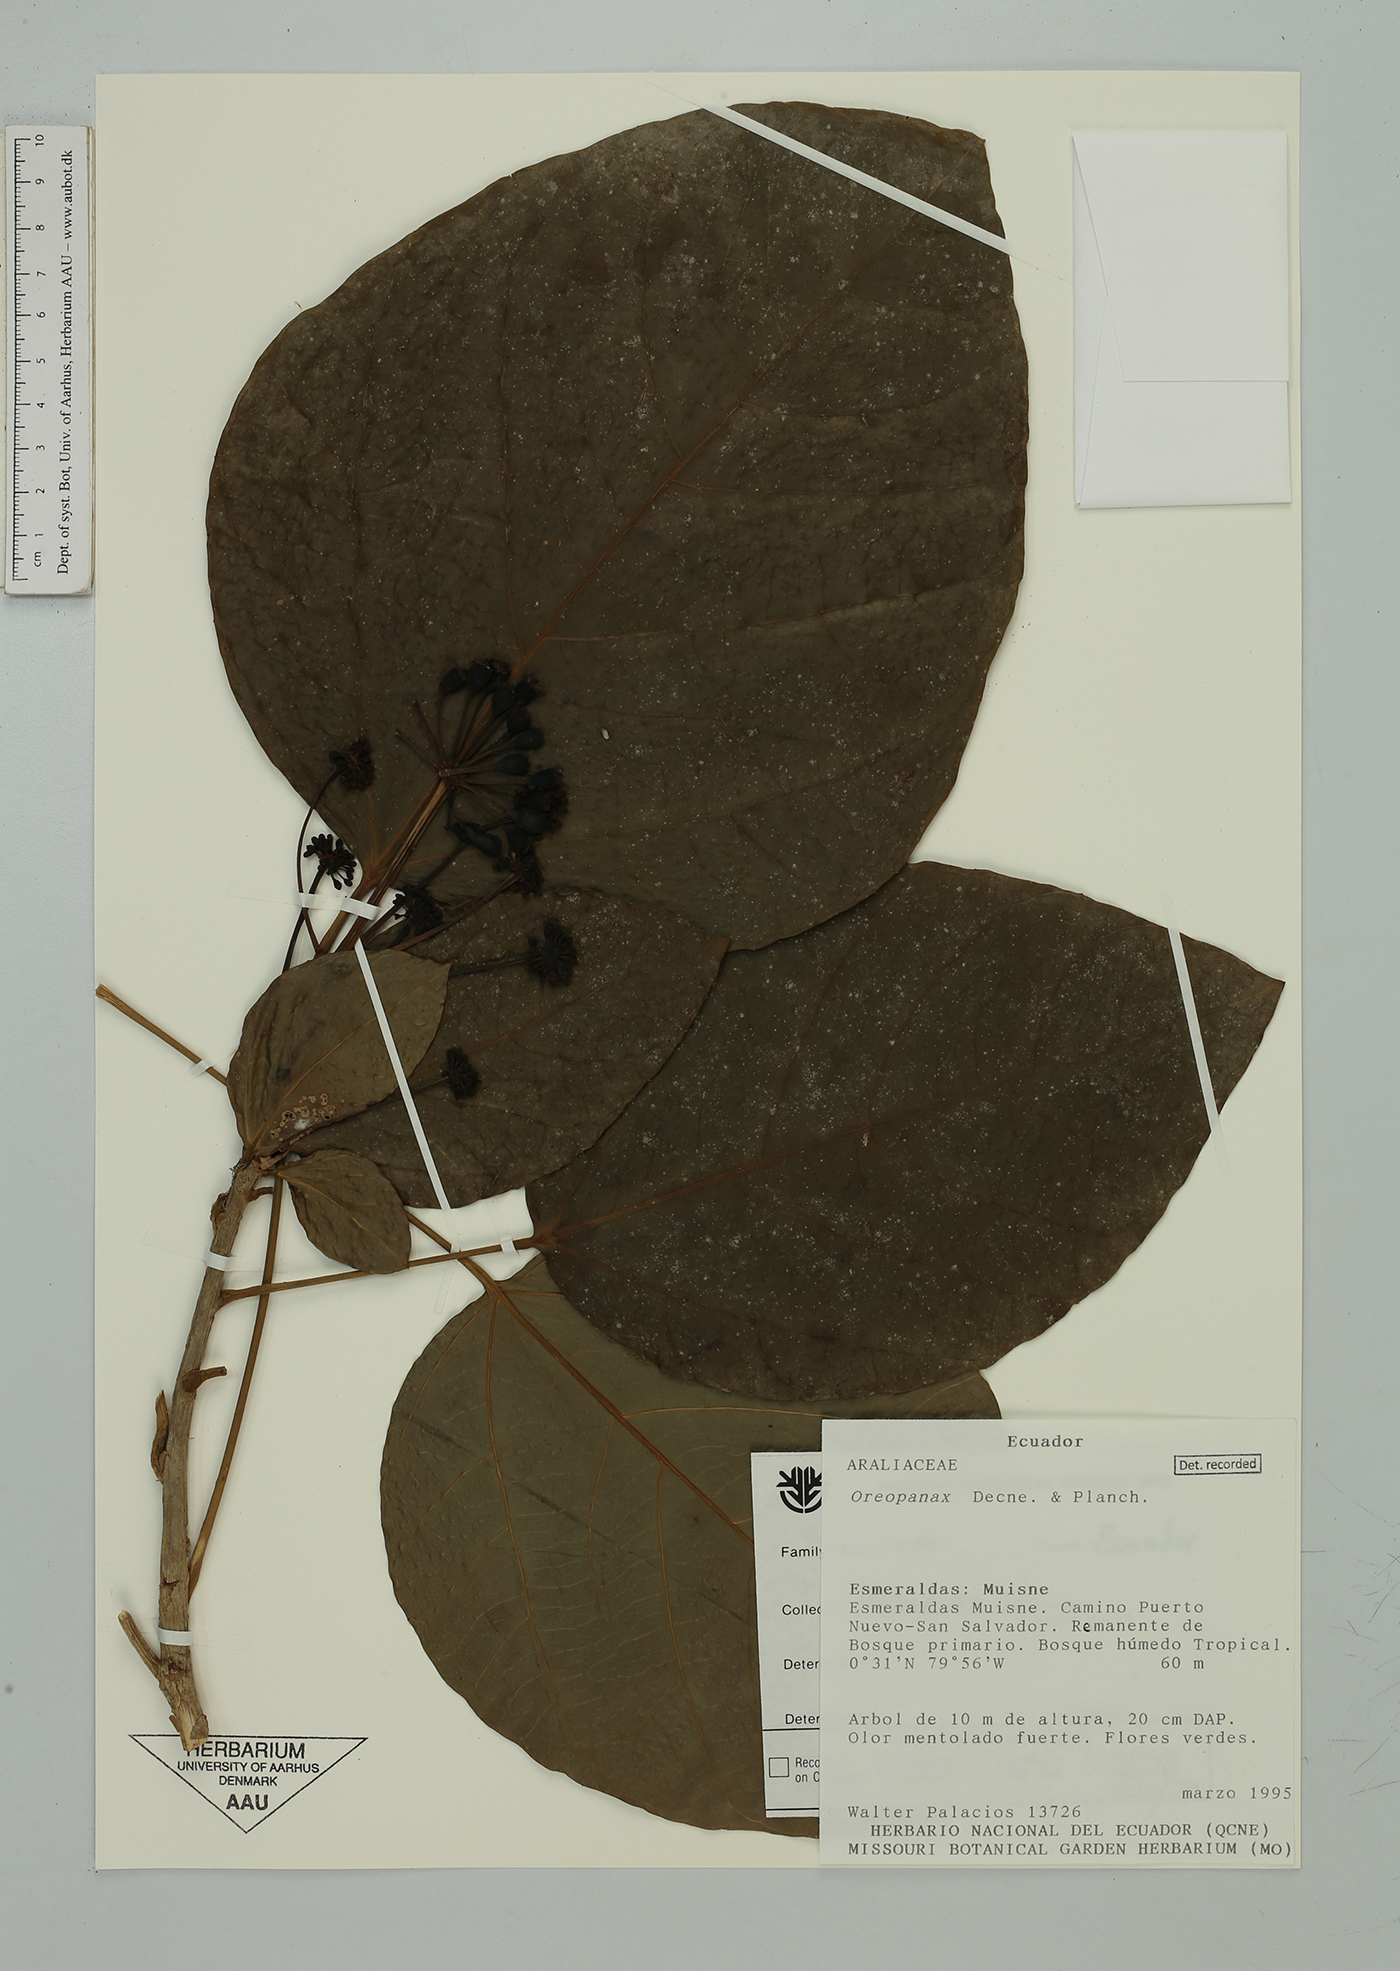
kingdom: Plantae
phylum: Tracheophyta
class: Magnoliopsida
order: Apiales
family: Araliaceae
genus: Oreopanax
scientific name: Oreopanax
